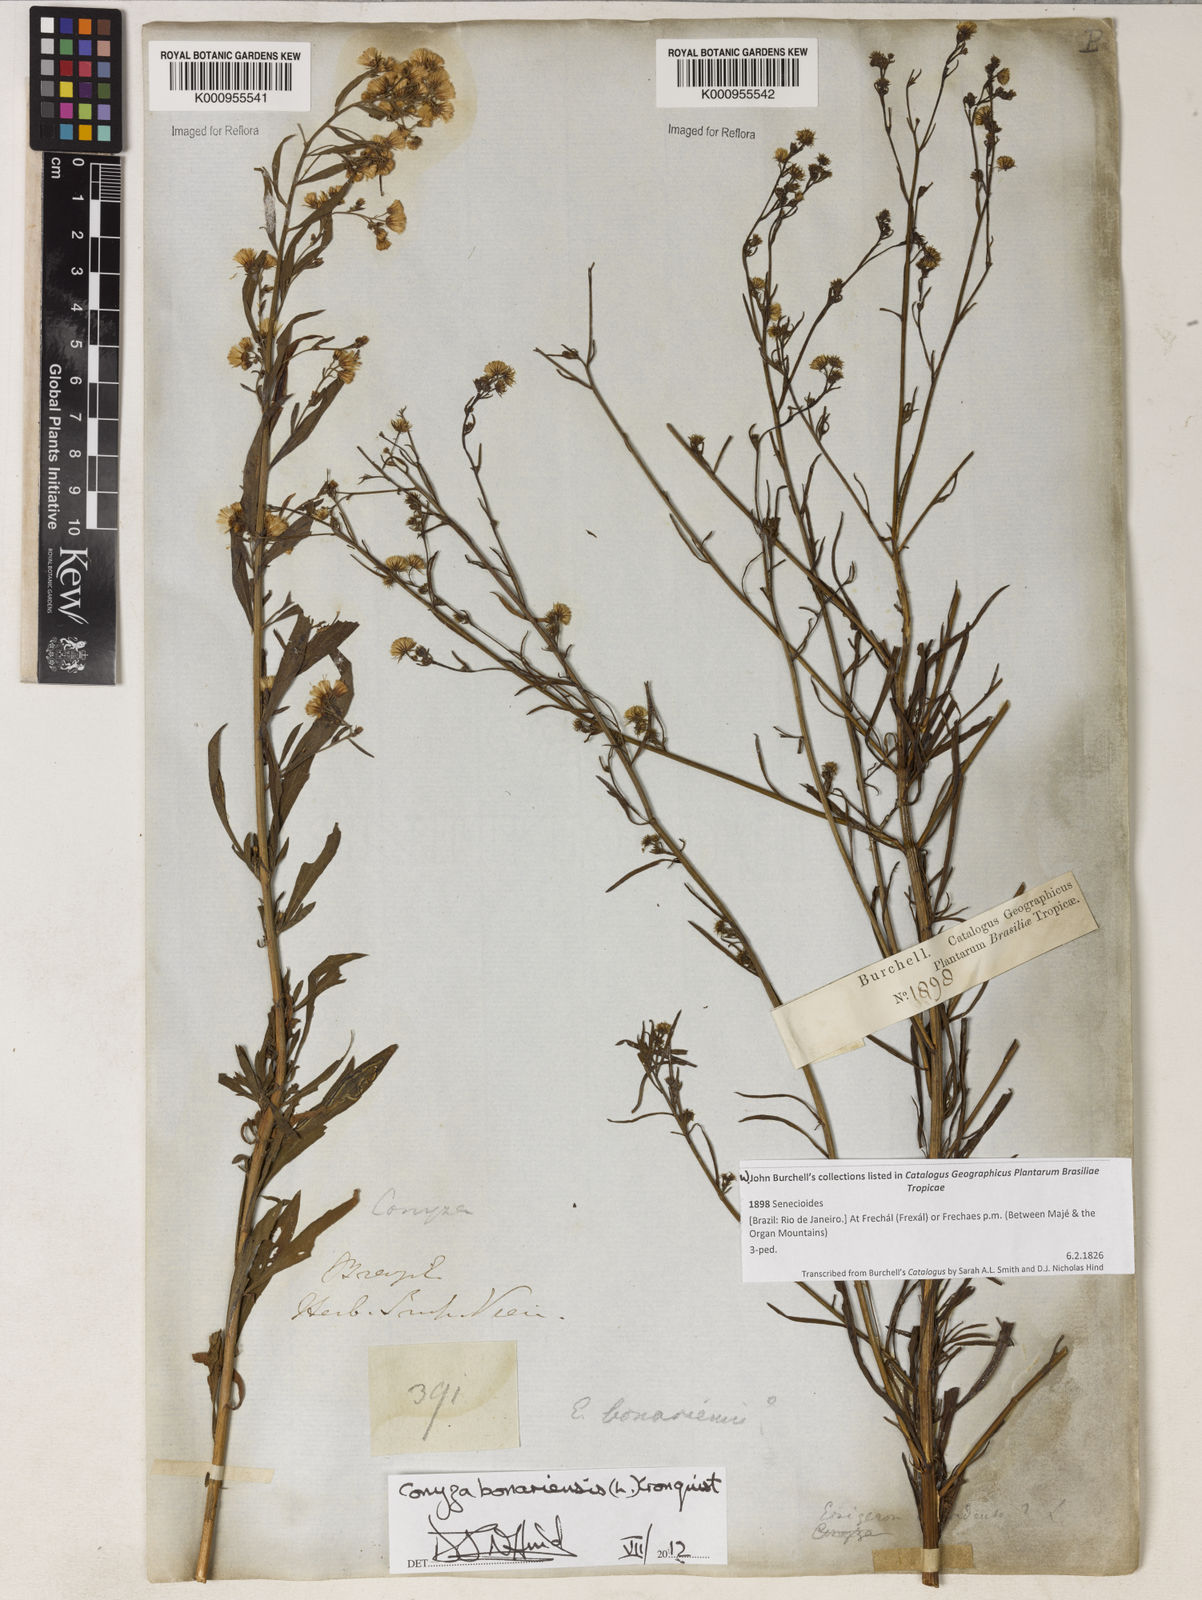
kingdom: Plantae
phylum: Tracheophyta
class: Magnoliopsida
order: Asterales
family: Asteraceae
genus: Erigeron
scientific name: Erigeron bonariensis
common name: Argentine fleabane
